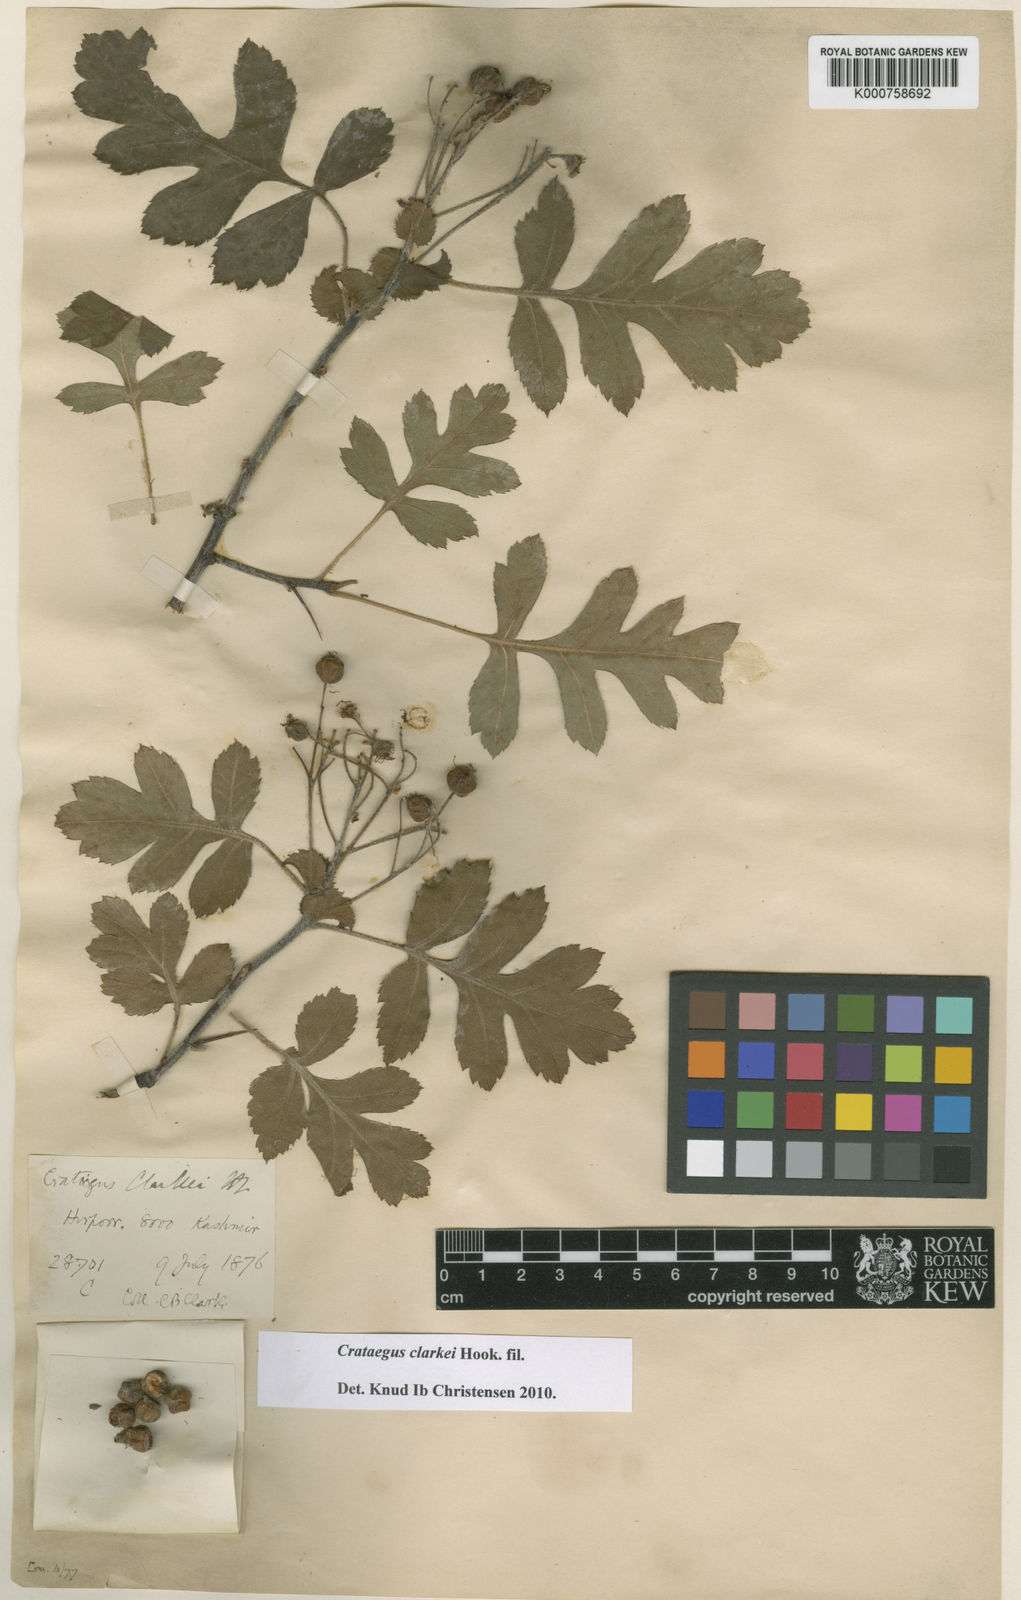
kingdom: Plantae
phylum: Tracheophyta
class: Magnoliopsida
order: Rosales
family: Rosaceae
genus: Crataegus
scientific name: Crataegus clarkei
